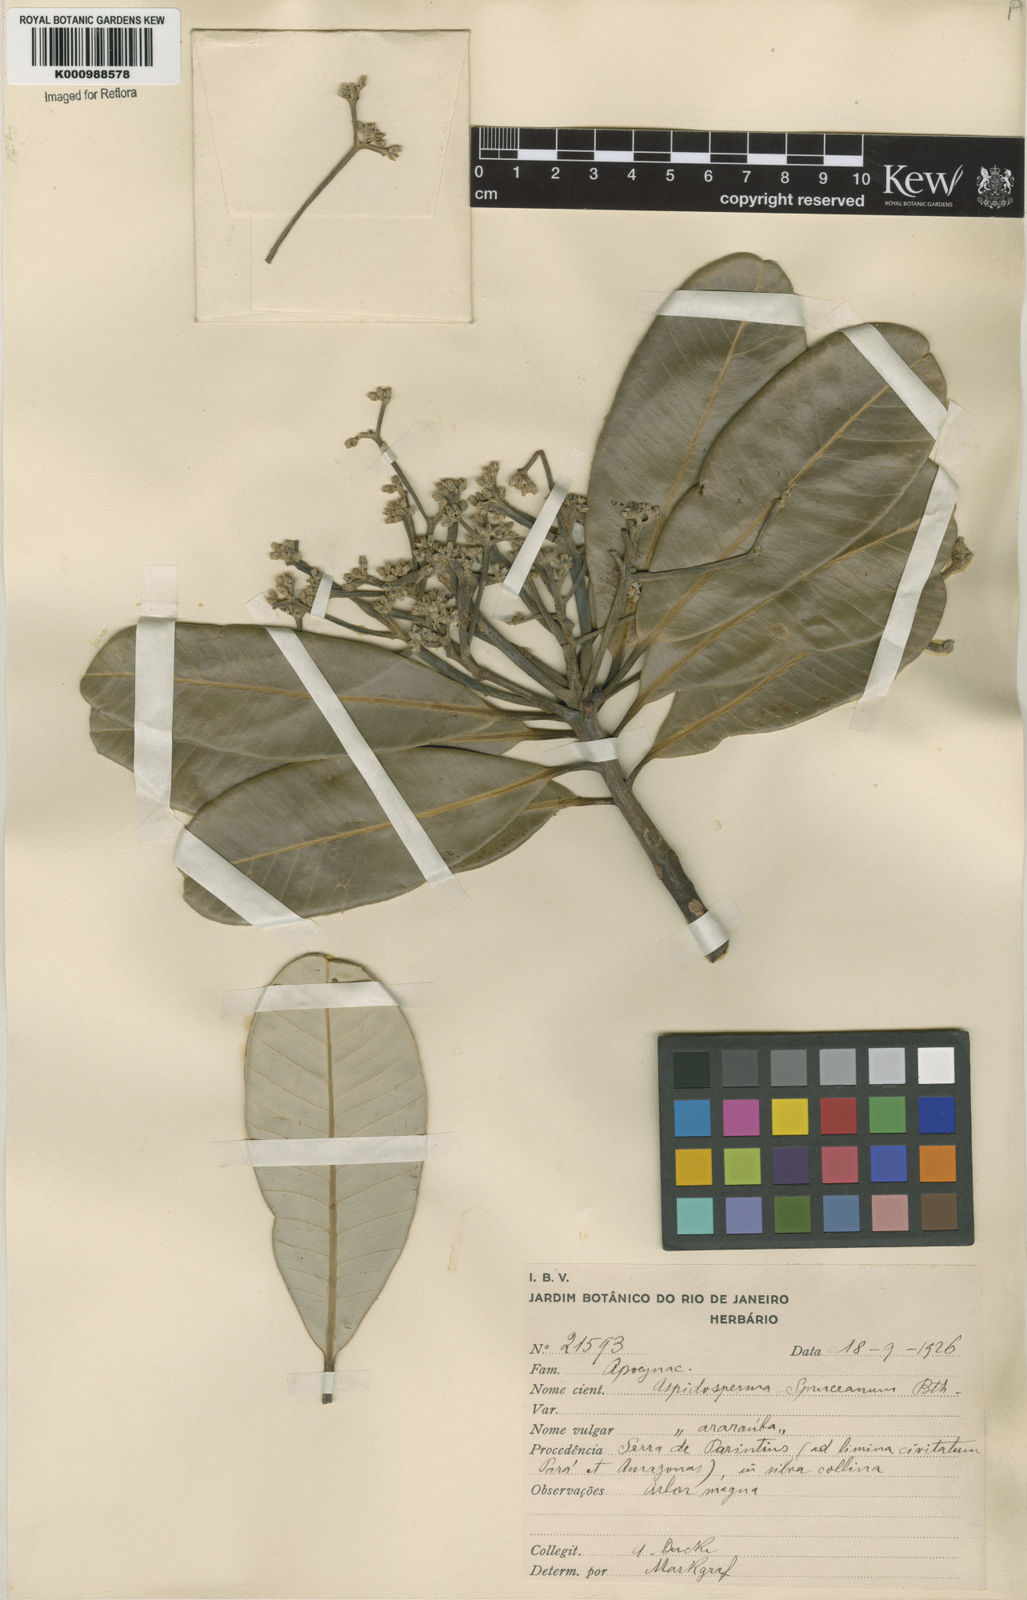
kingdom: Plantae
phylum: Tracheophyta
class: Magnoliopsida
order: Gentianales
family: Apocynaceae
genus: Aspidosperma
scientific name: Aspidosperma
